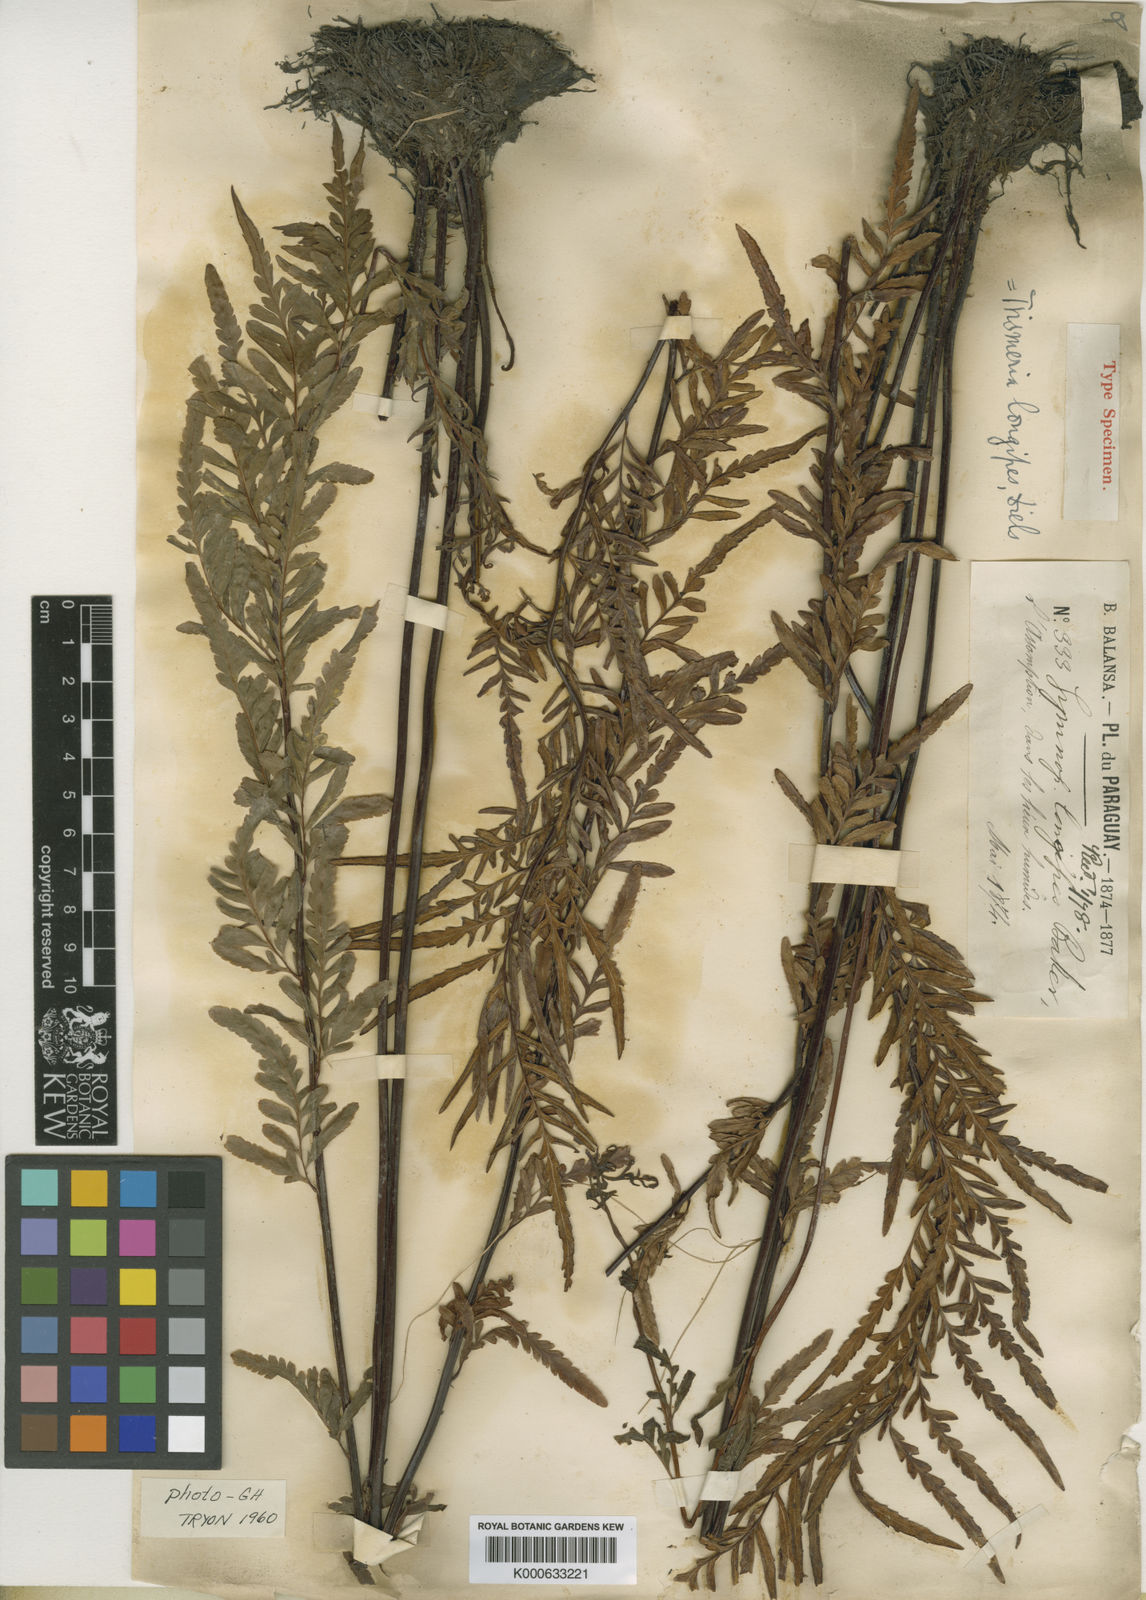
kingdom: Plantae
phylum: Tracheophyta
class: Polypodiopsida
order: Polypodiales
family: Pteridaceae
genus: Pityrogramma
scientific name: Pityrogramma longipes
